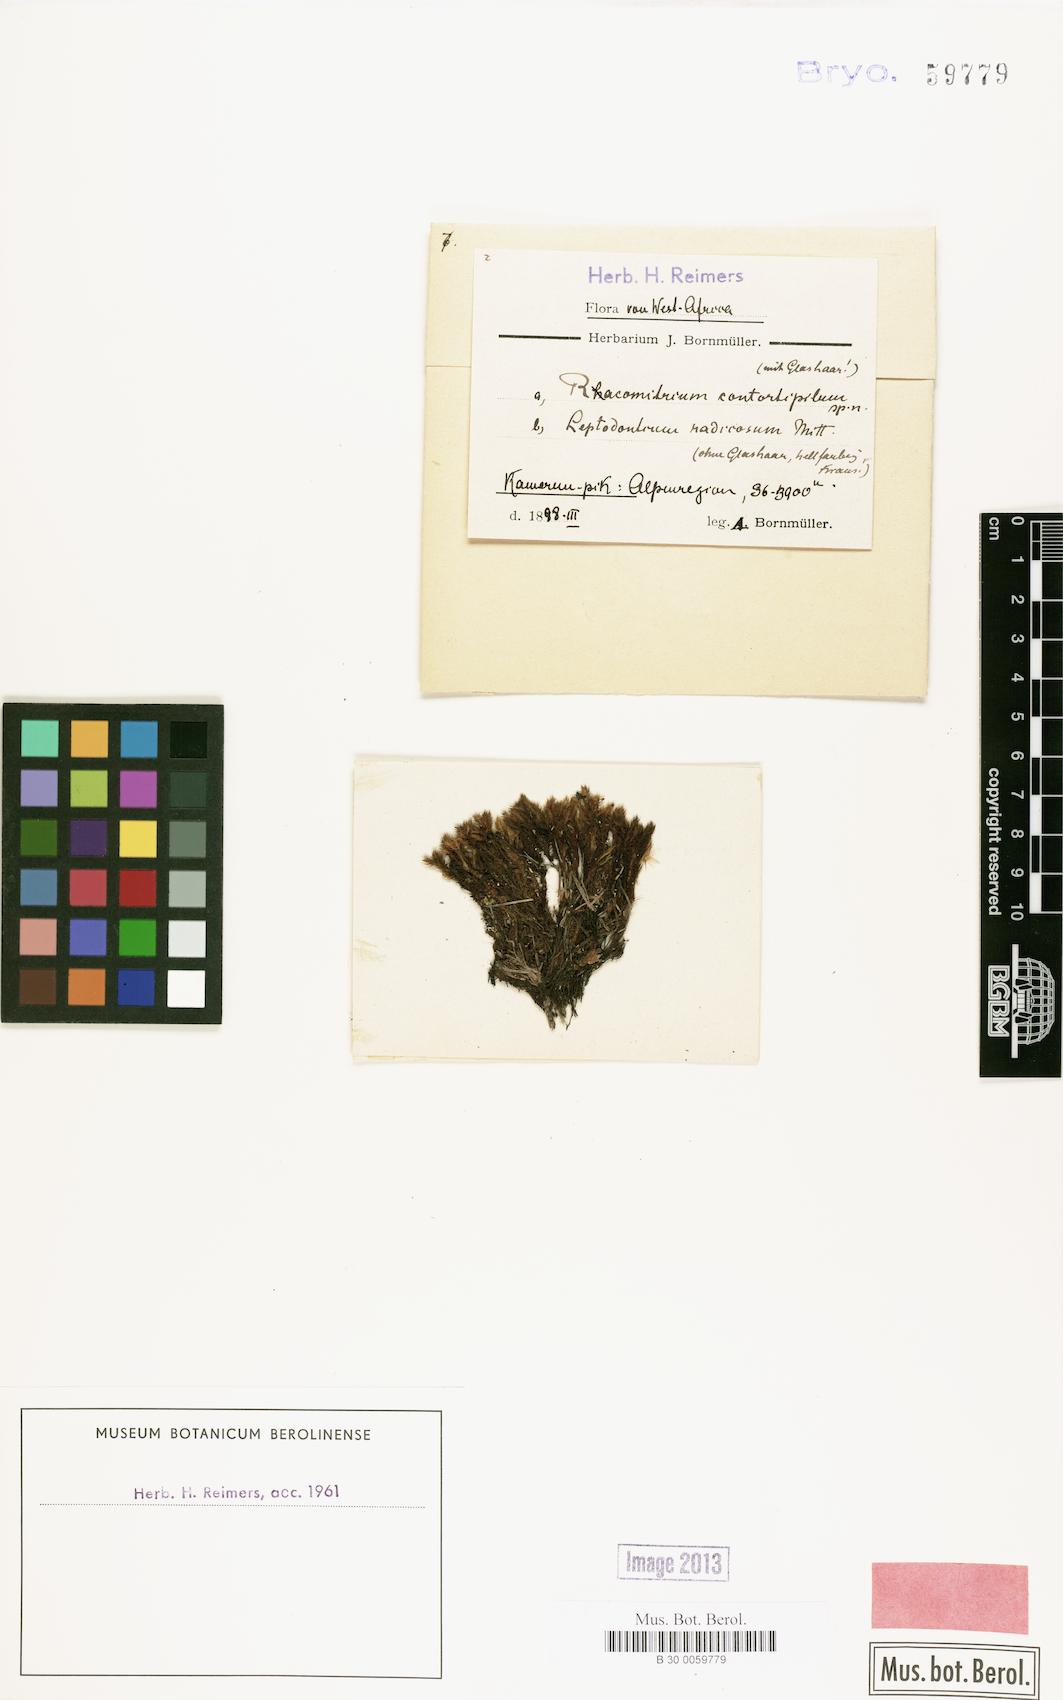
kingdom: Plantae
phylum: Bryophyta
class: Bryopsida
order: Grimmiales
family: Grimmiaceae
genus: Racomitrium
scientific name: Racomitrium
